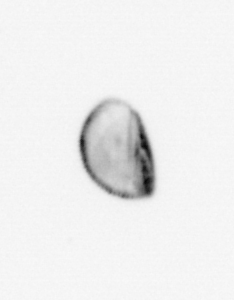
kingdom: Chromista
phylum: Ochrophyta
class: Bacillariophyceae
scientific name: Bacillariophyceae
